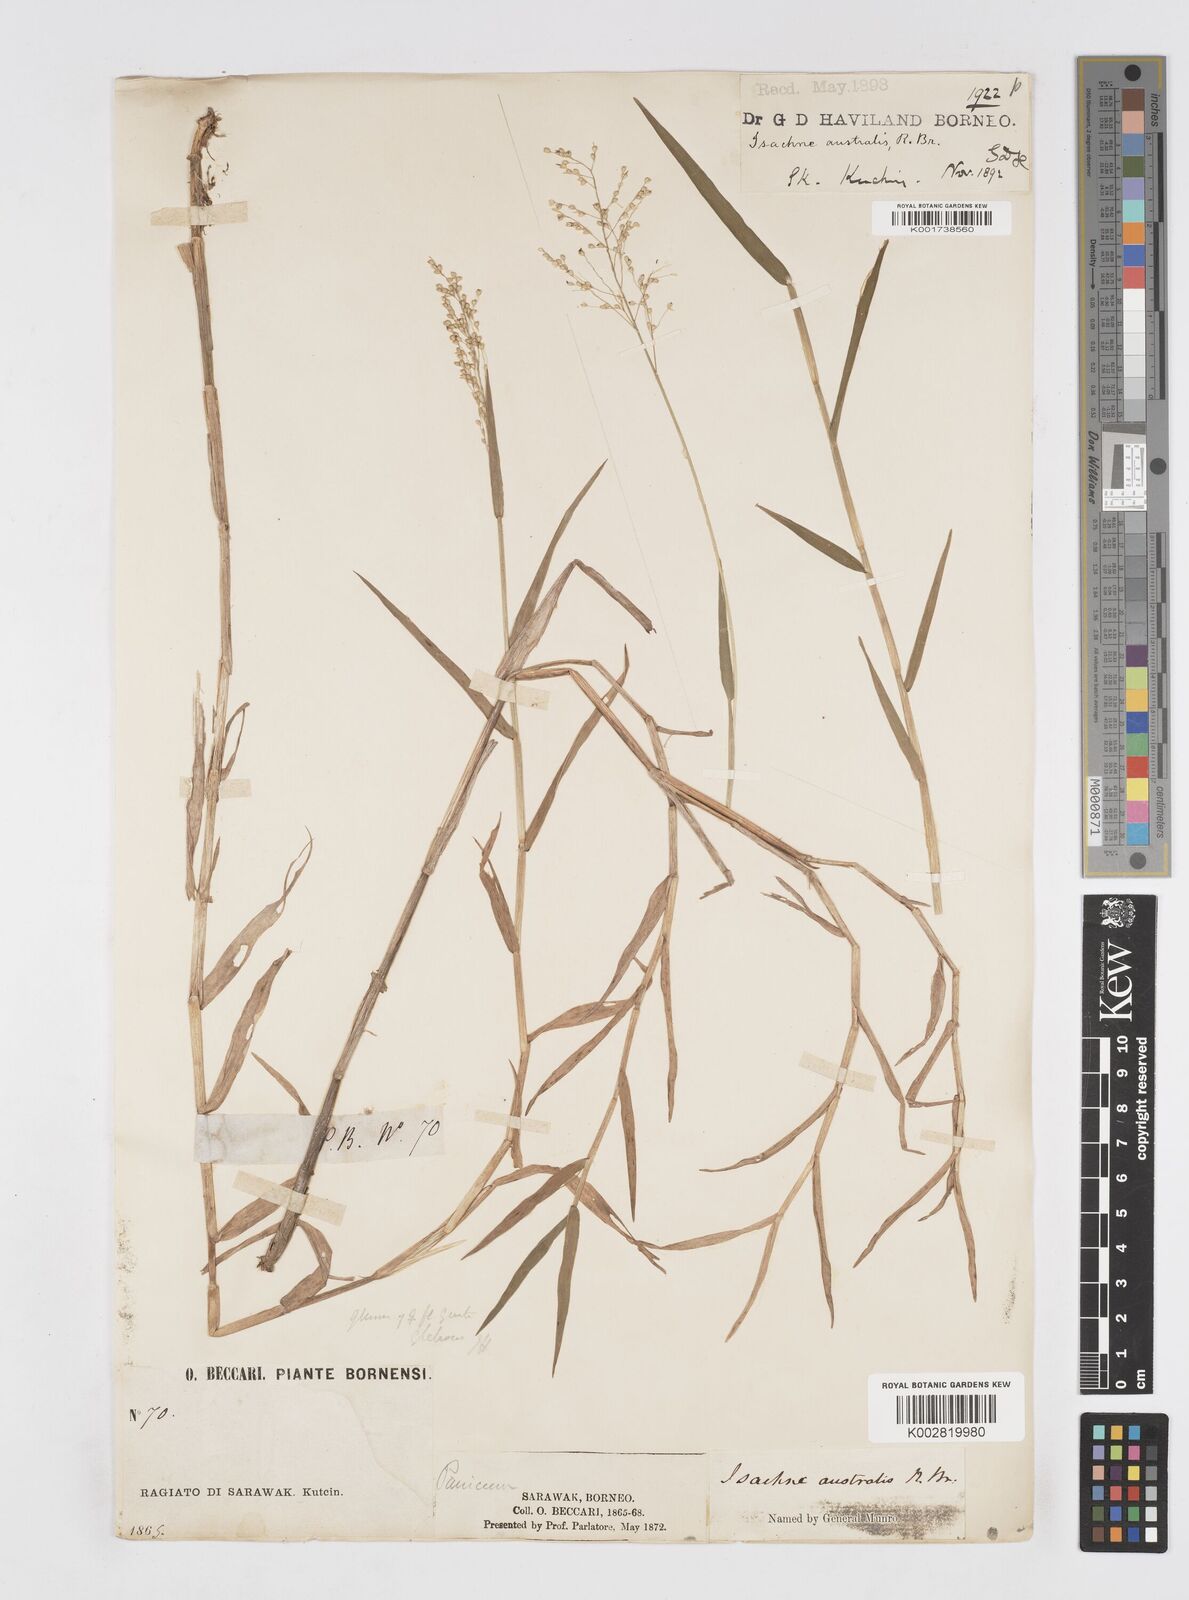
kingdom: Plantae
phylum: Tracheophyta
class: Liliopsida
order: Poales
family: Poaceae
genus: Isachne
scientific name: Isachne globosa
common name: Swamp millet
